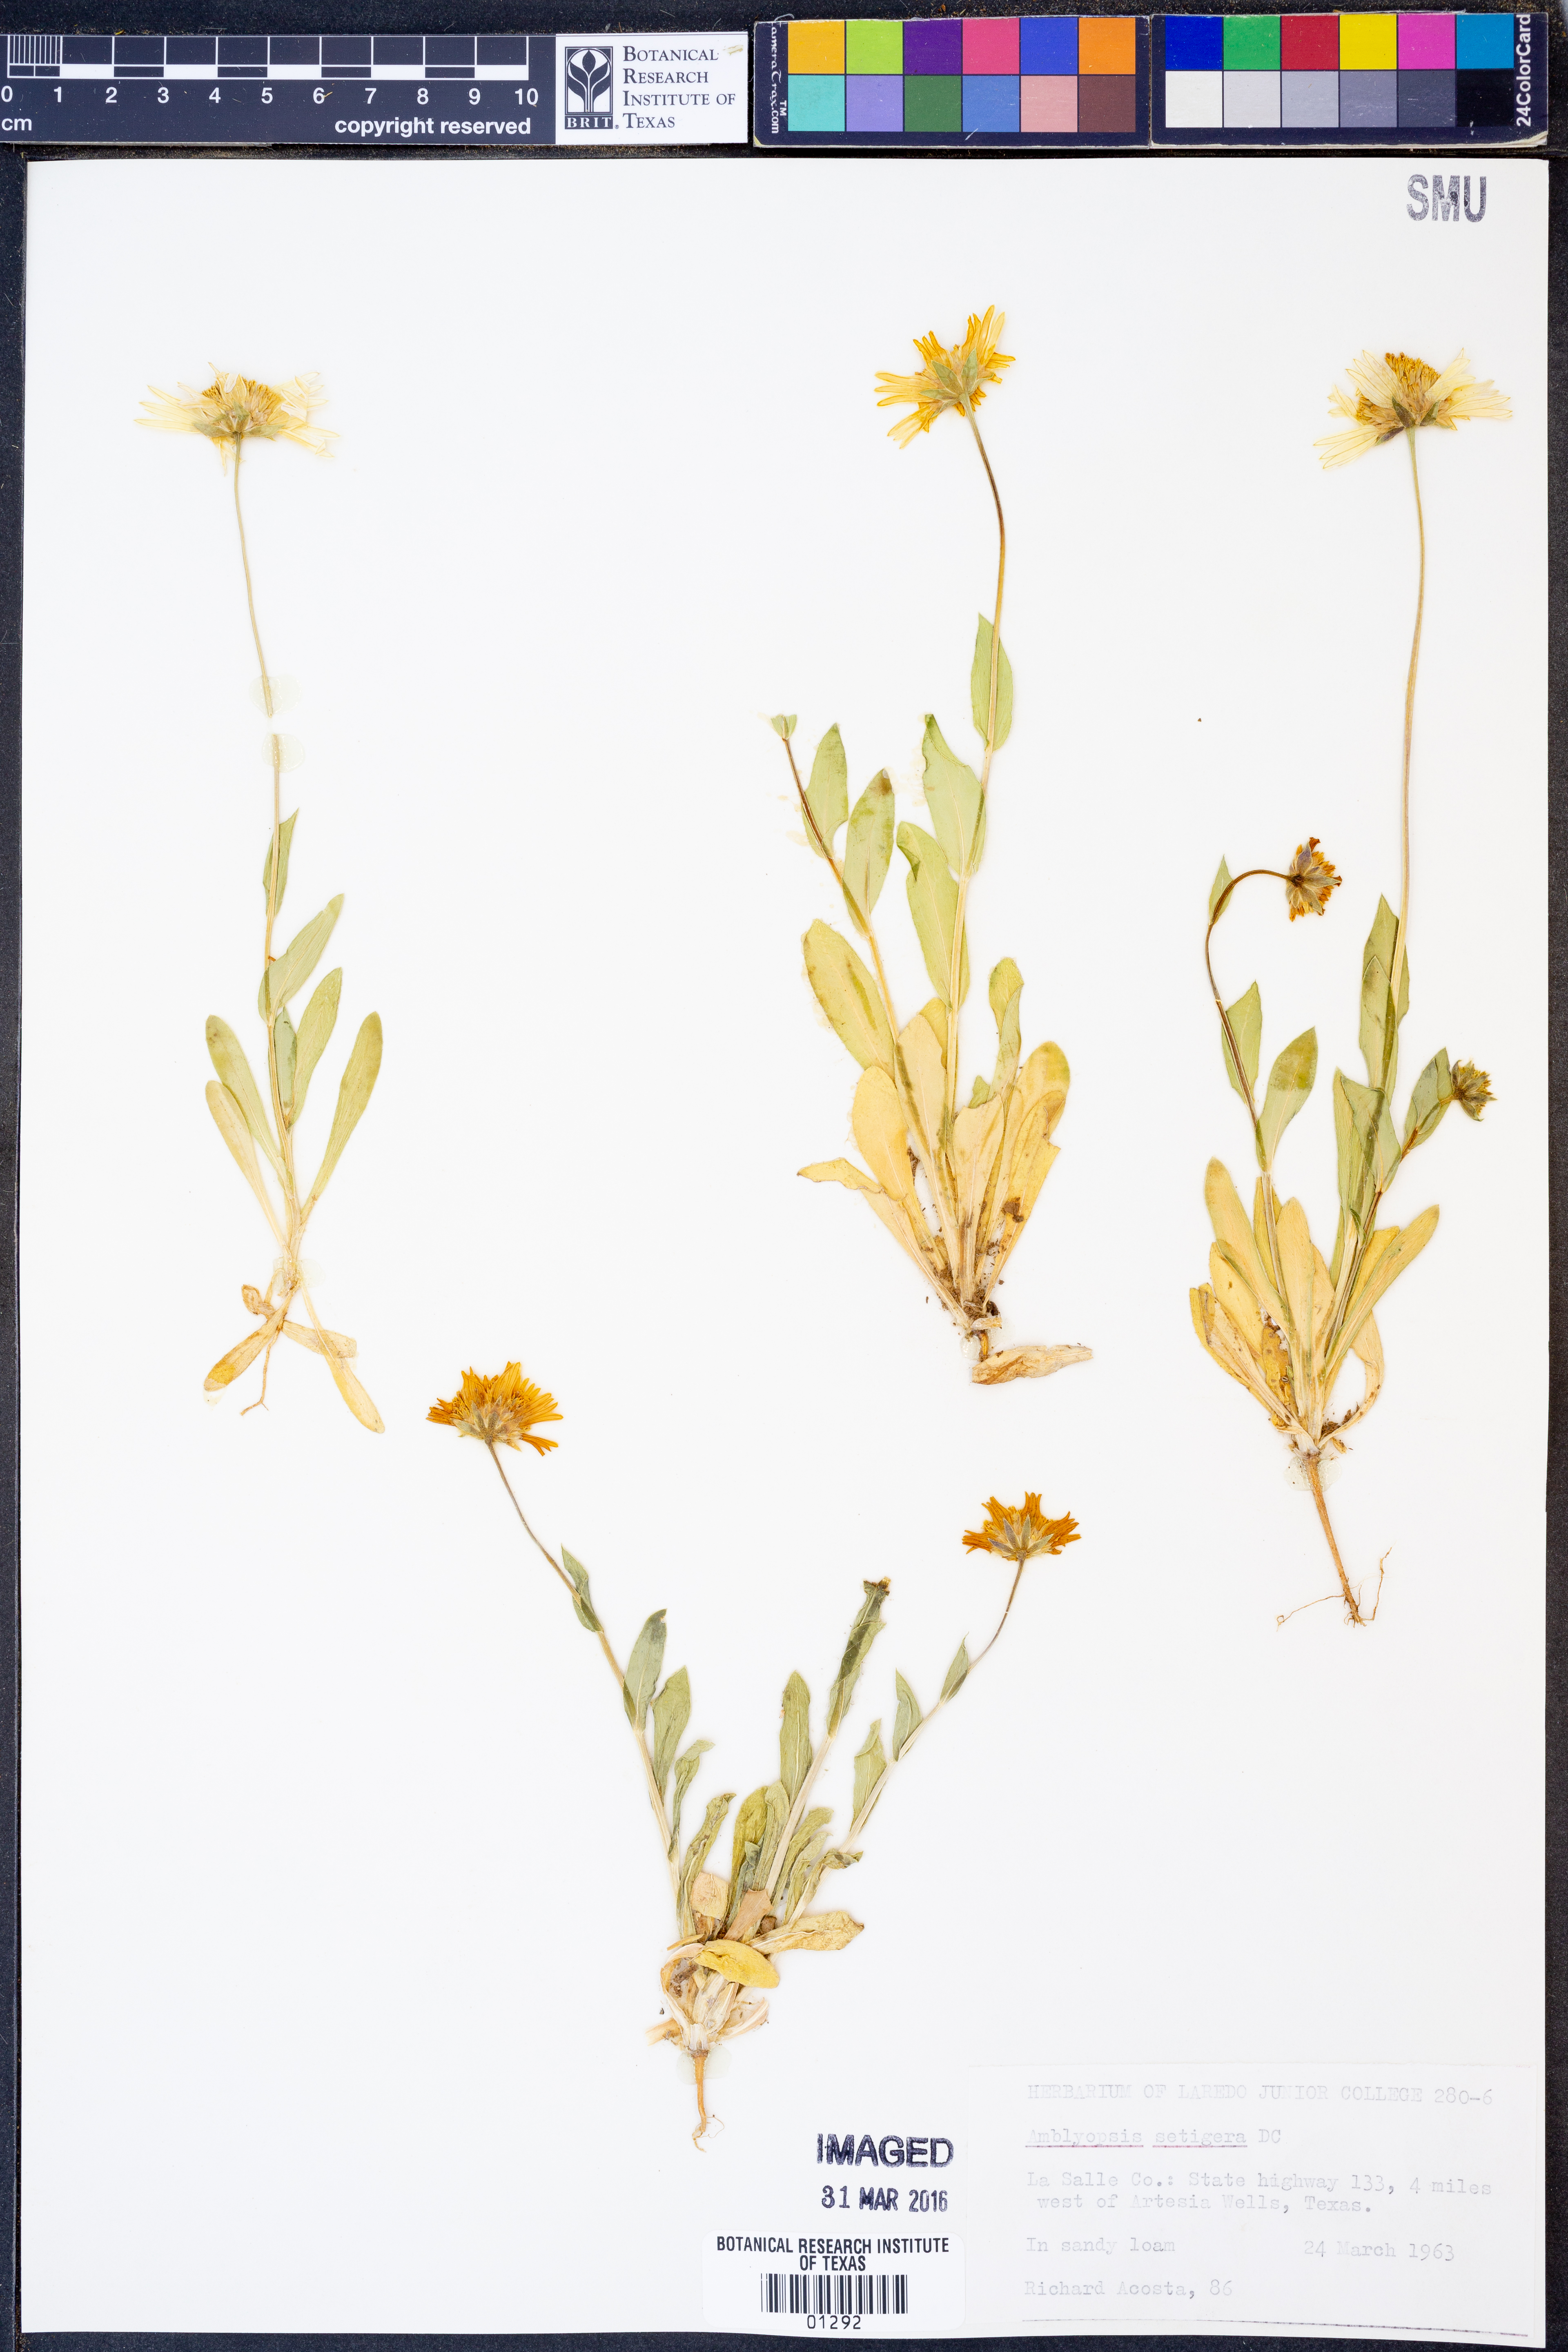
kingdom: Plantae
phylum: Tracheophyta
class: Magnoliopsida
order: Asterales
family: Asteraceae
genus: Amblyolepis
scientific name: Amblyolepis setigera
